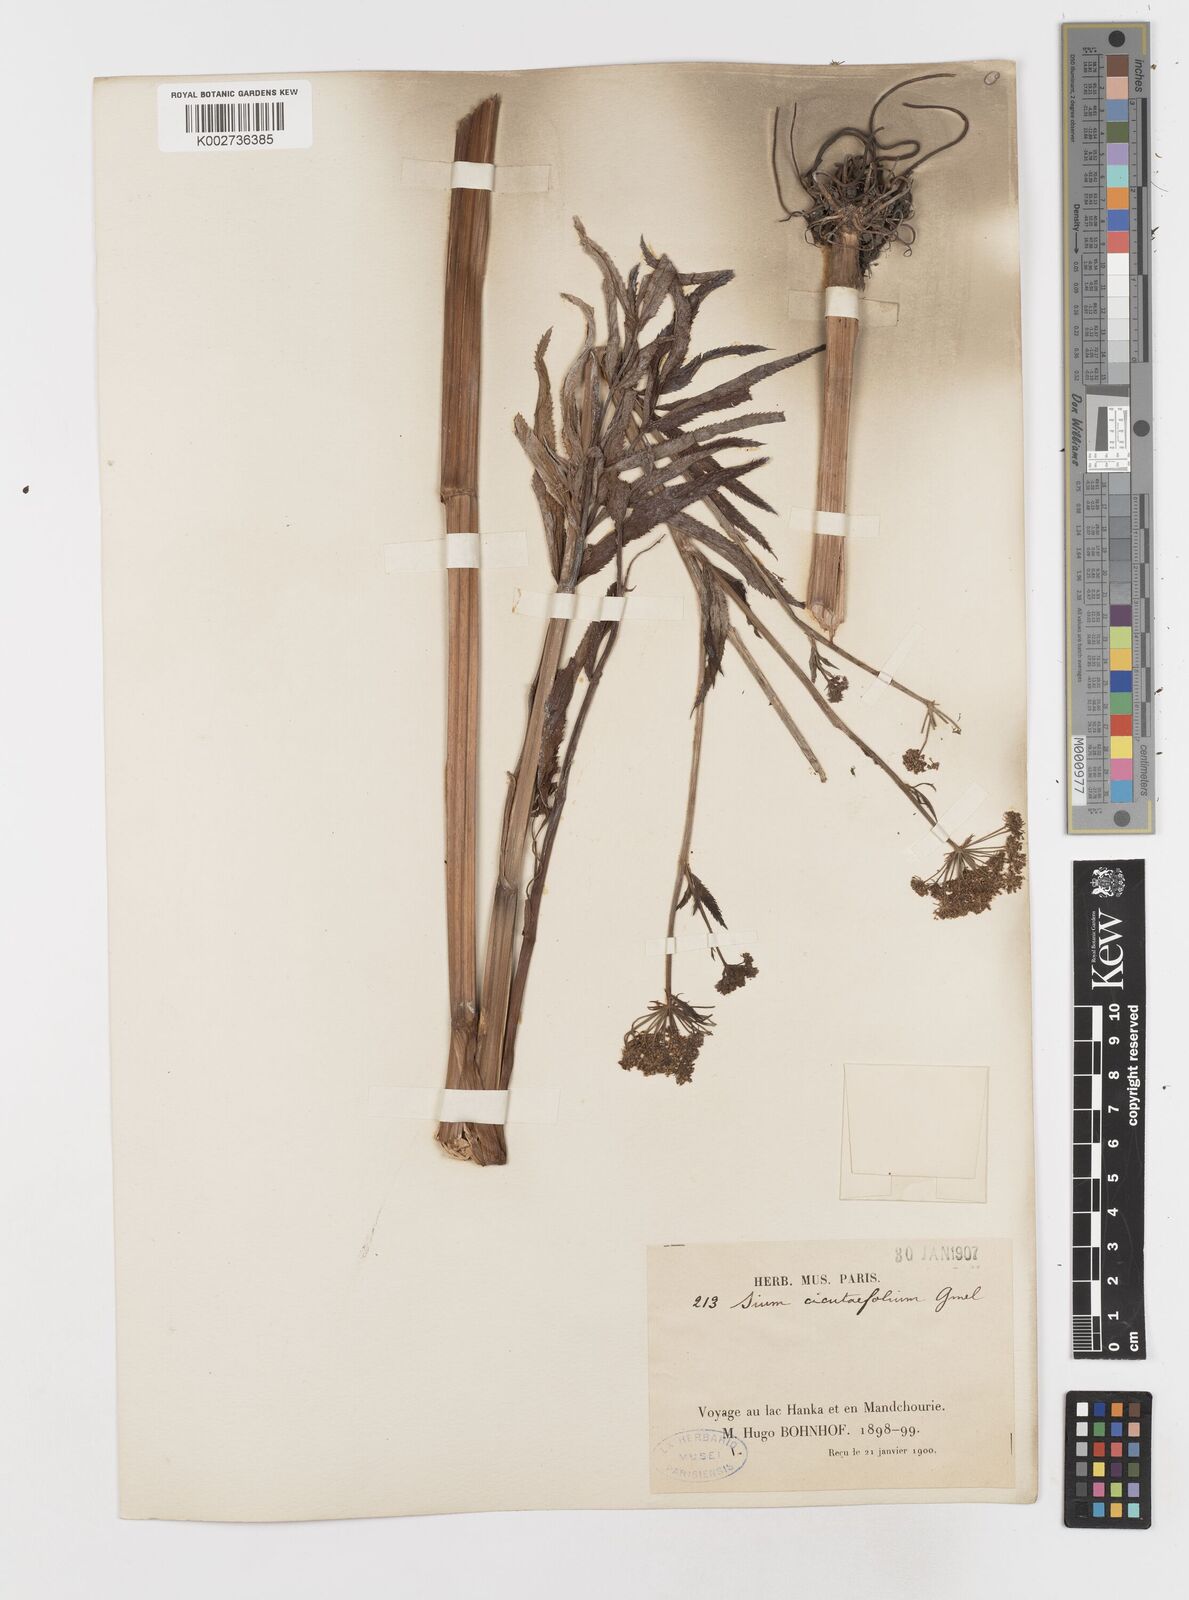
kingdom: Plantae
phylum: Tracheophyta
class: Magnoliopsida
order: Apiales
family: Apiaceae
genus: Sium
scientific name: Sium suave
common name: Hemlock water-parsnip
